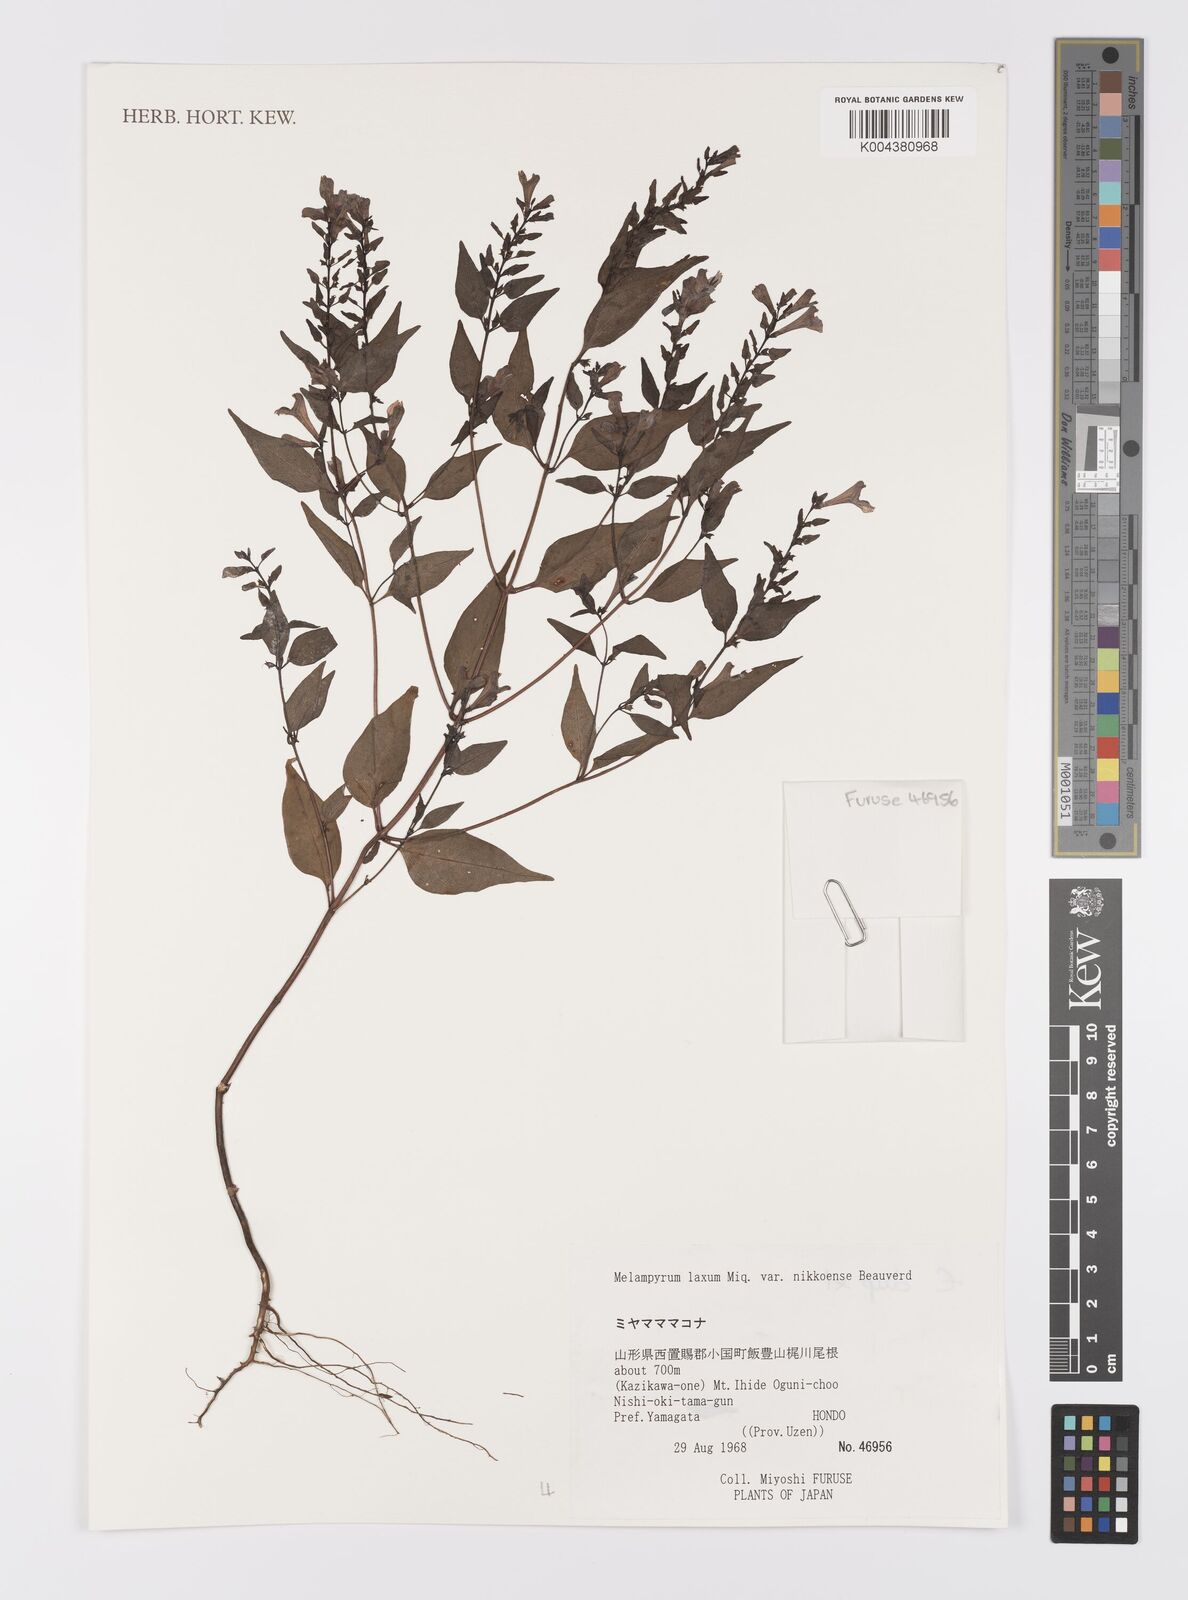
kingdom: Plantae
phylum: Tracheophyta
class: Magnoliopsida
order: Lamiales
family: Orobanchaceae
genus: Melampyrum
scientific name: Melampyrum laxum
